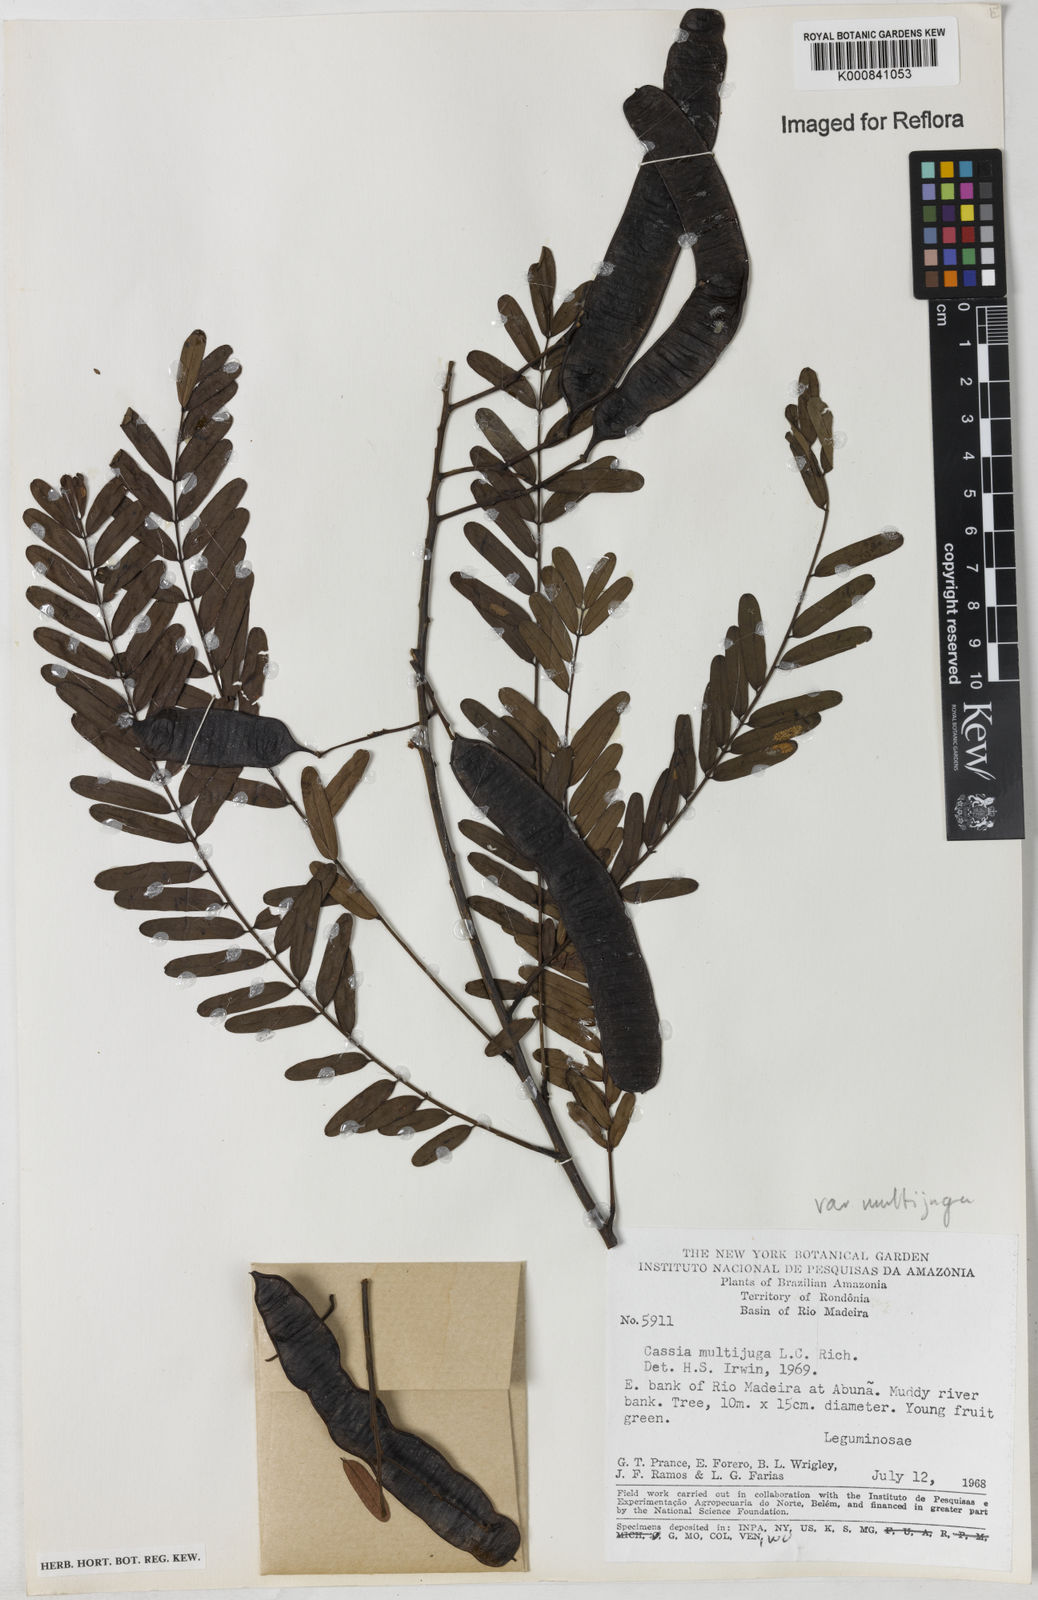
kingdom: Plantae
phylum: Tracheophyta
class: Magnoliopsida
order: Fabales
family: Fabaceae
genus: Senna
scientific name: Senna multijuga
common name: False sicklepod
